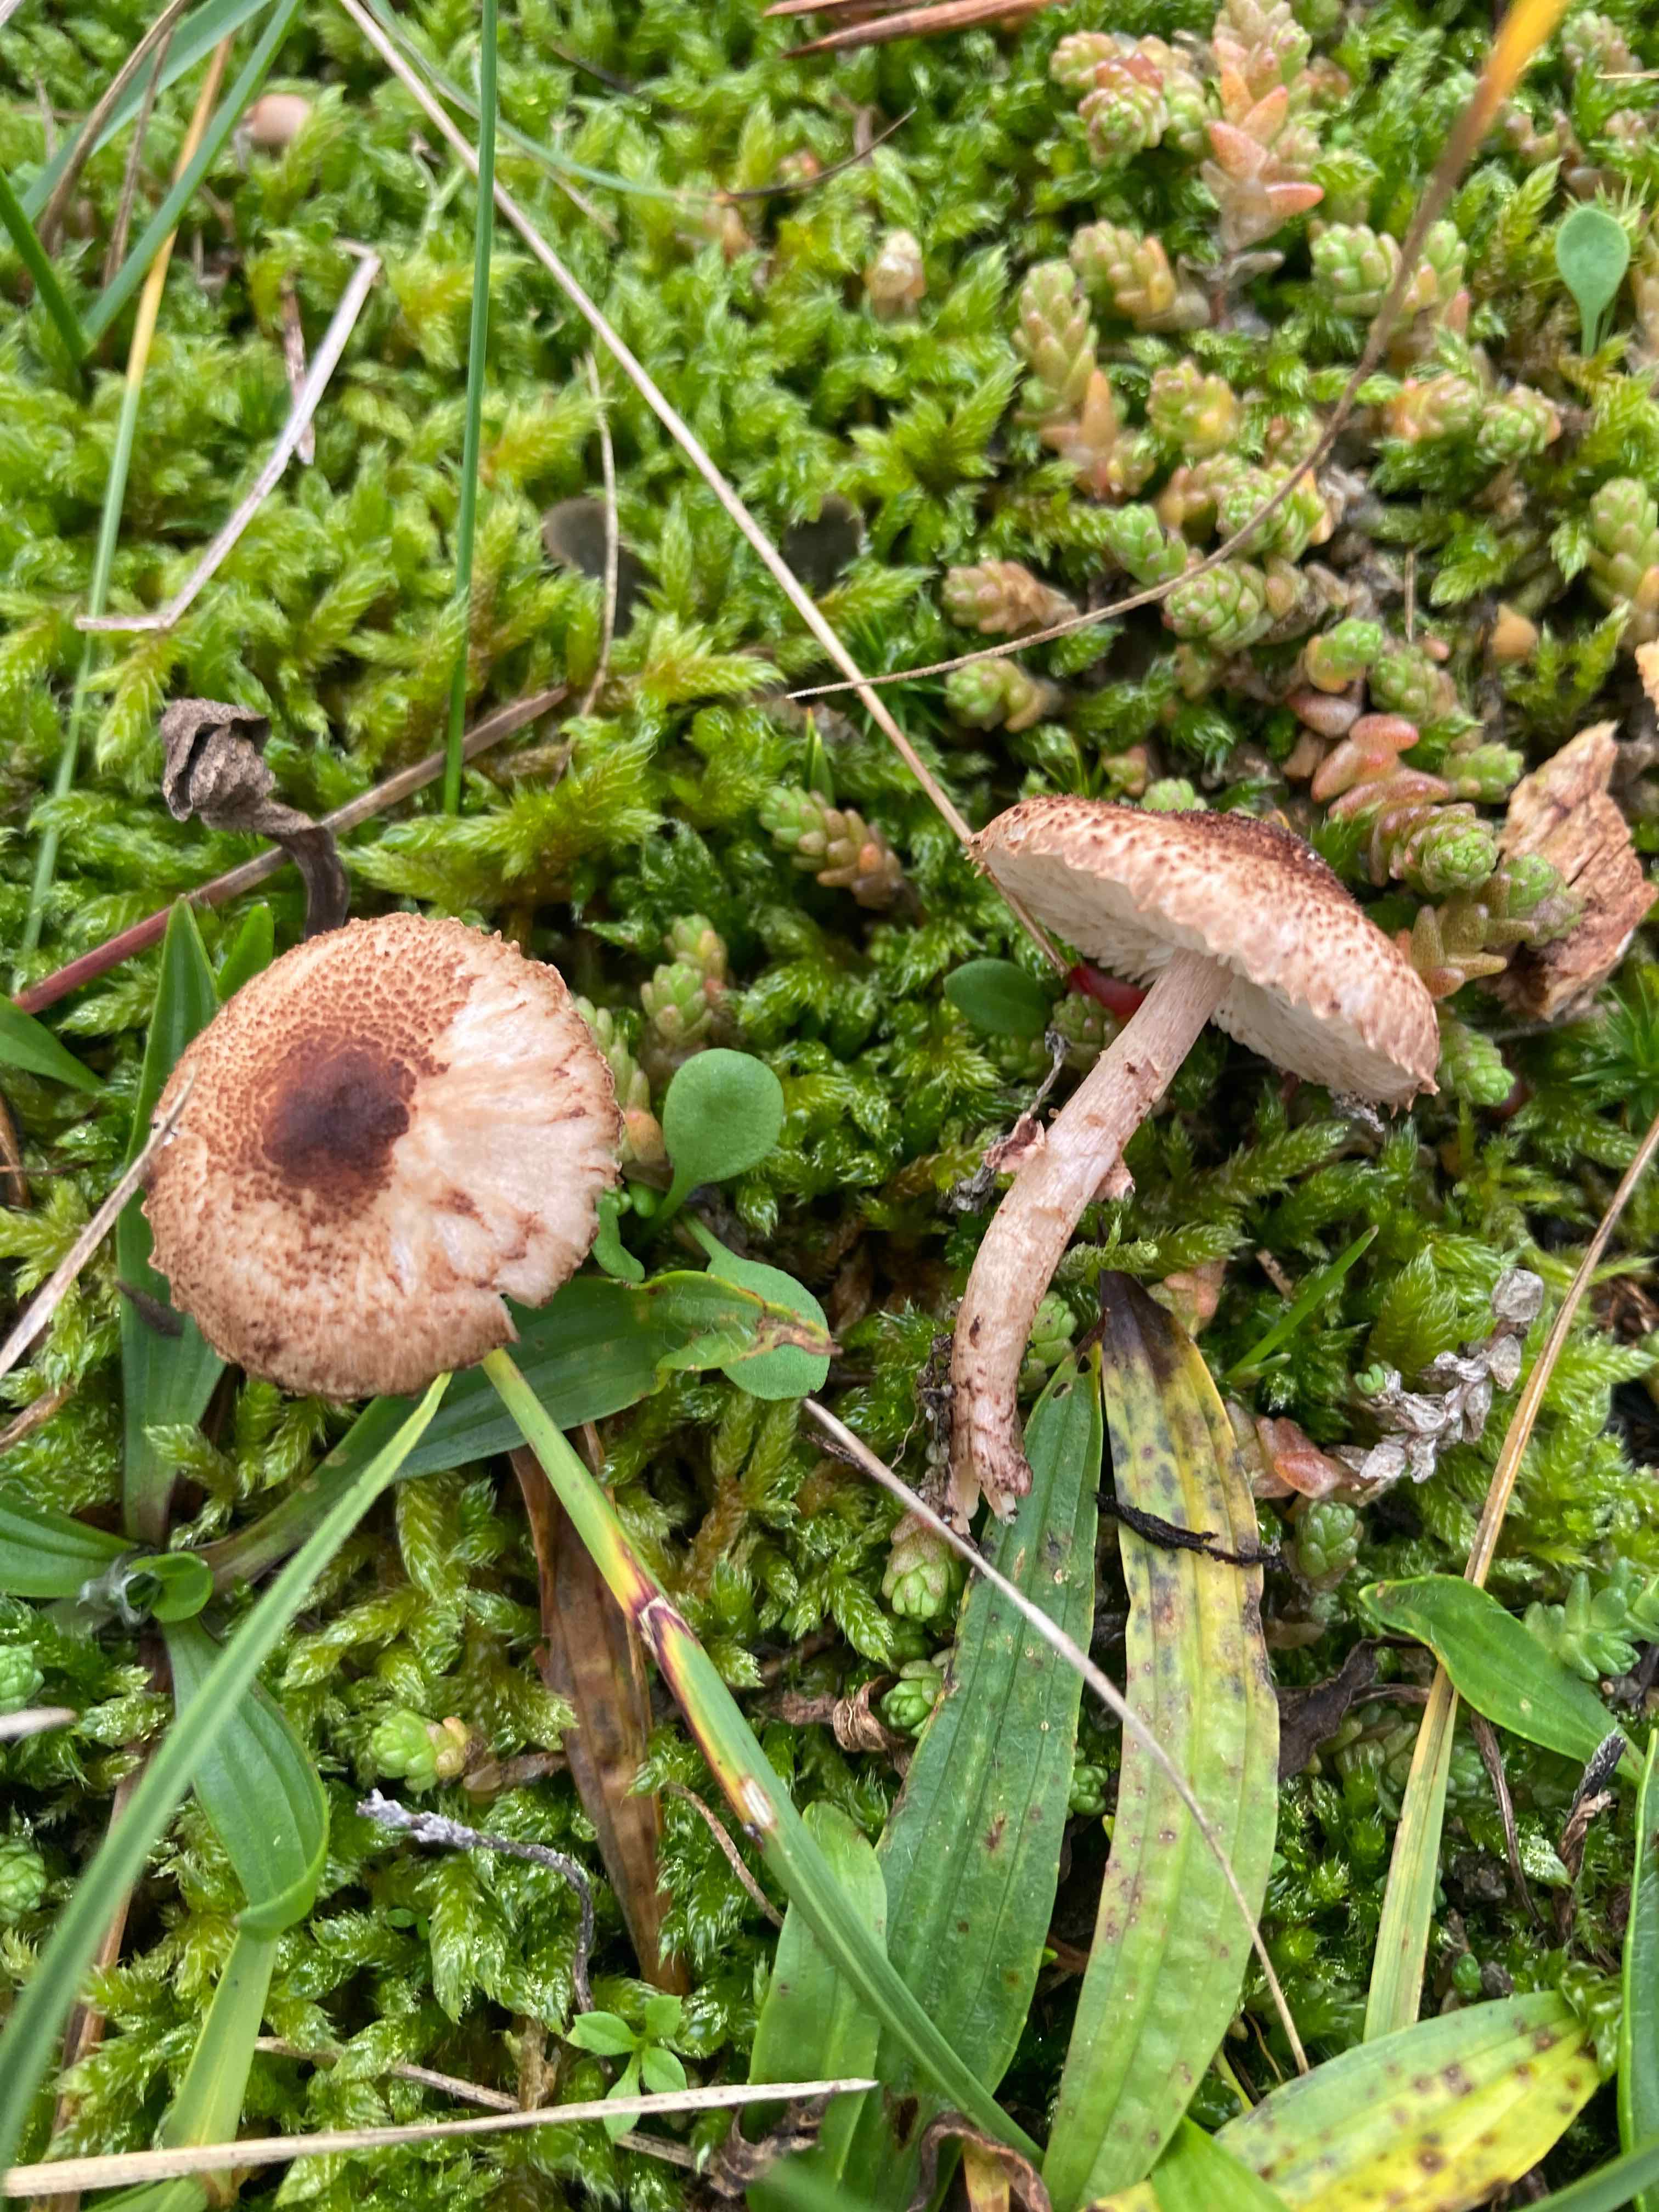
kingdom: Fungi
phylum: Basidiomycota
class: Agaricomycetes
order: Agaricales
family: Agaricaceae
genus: Lepiota
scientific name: Lepiota pseudolilacea
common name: gråbrun parasolhat
